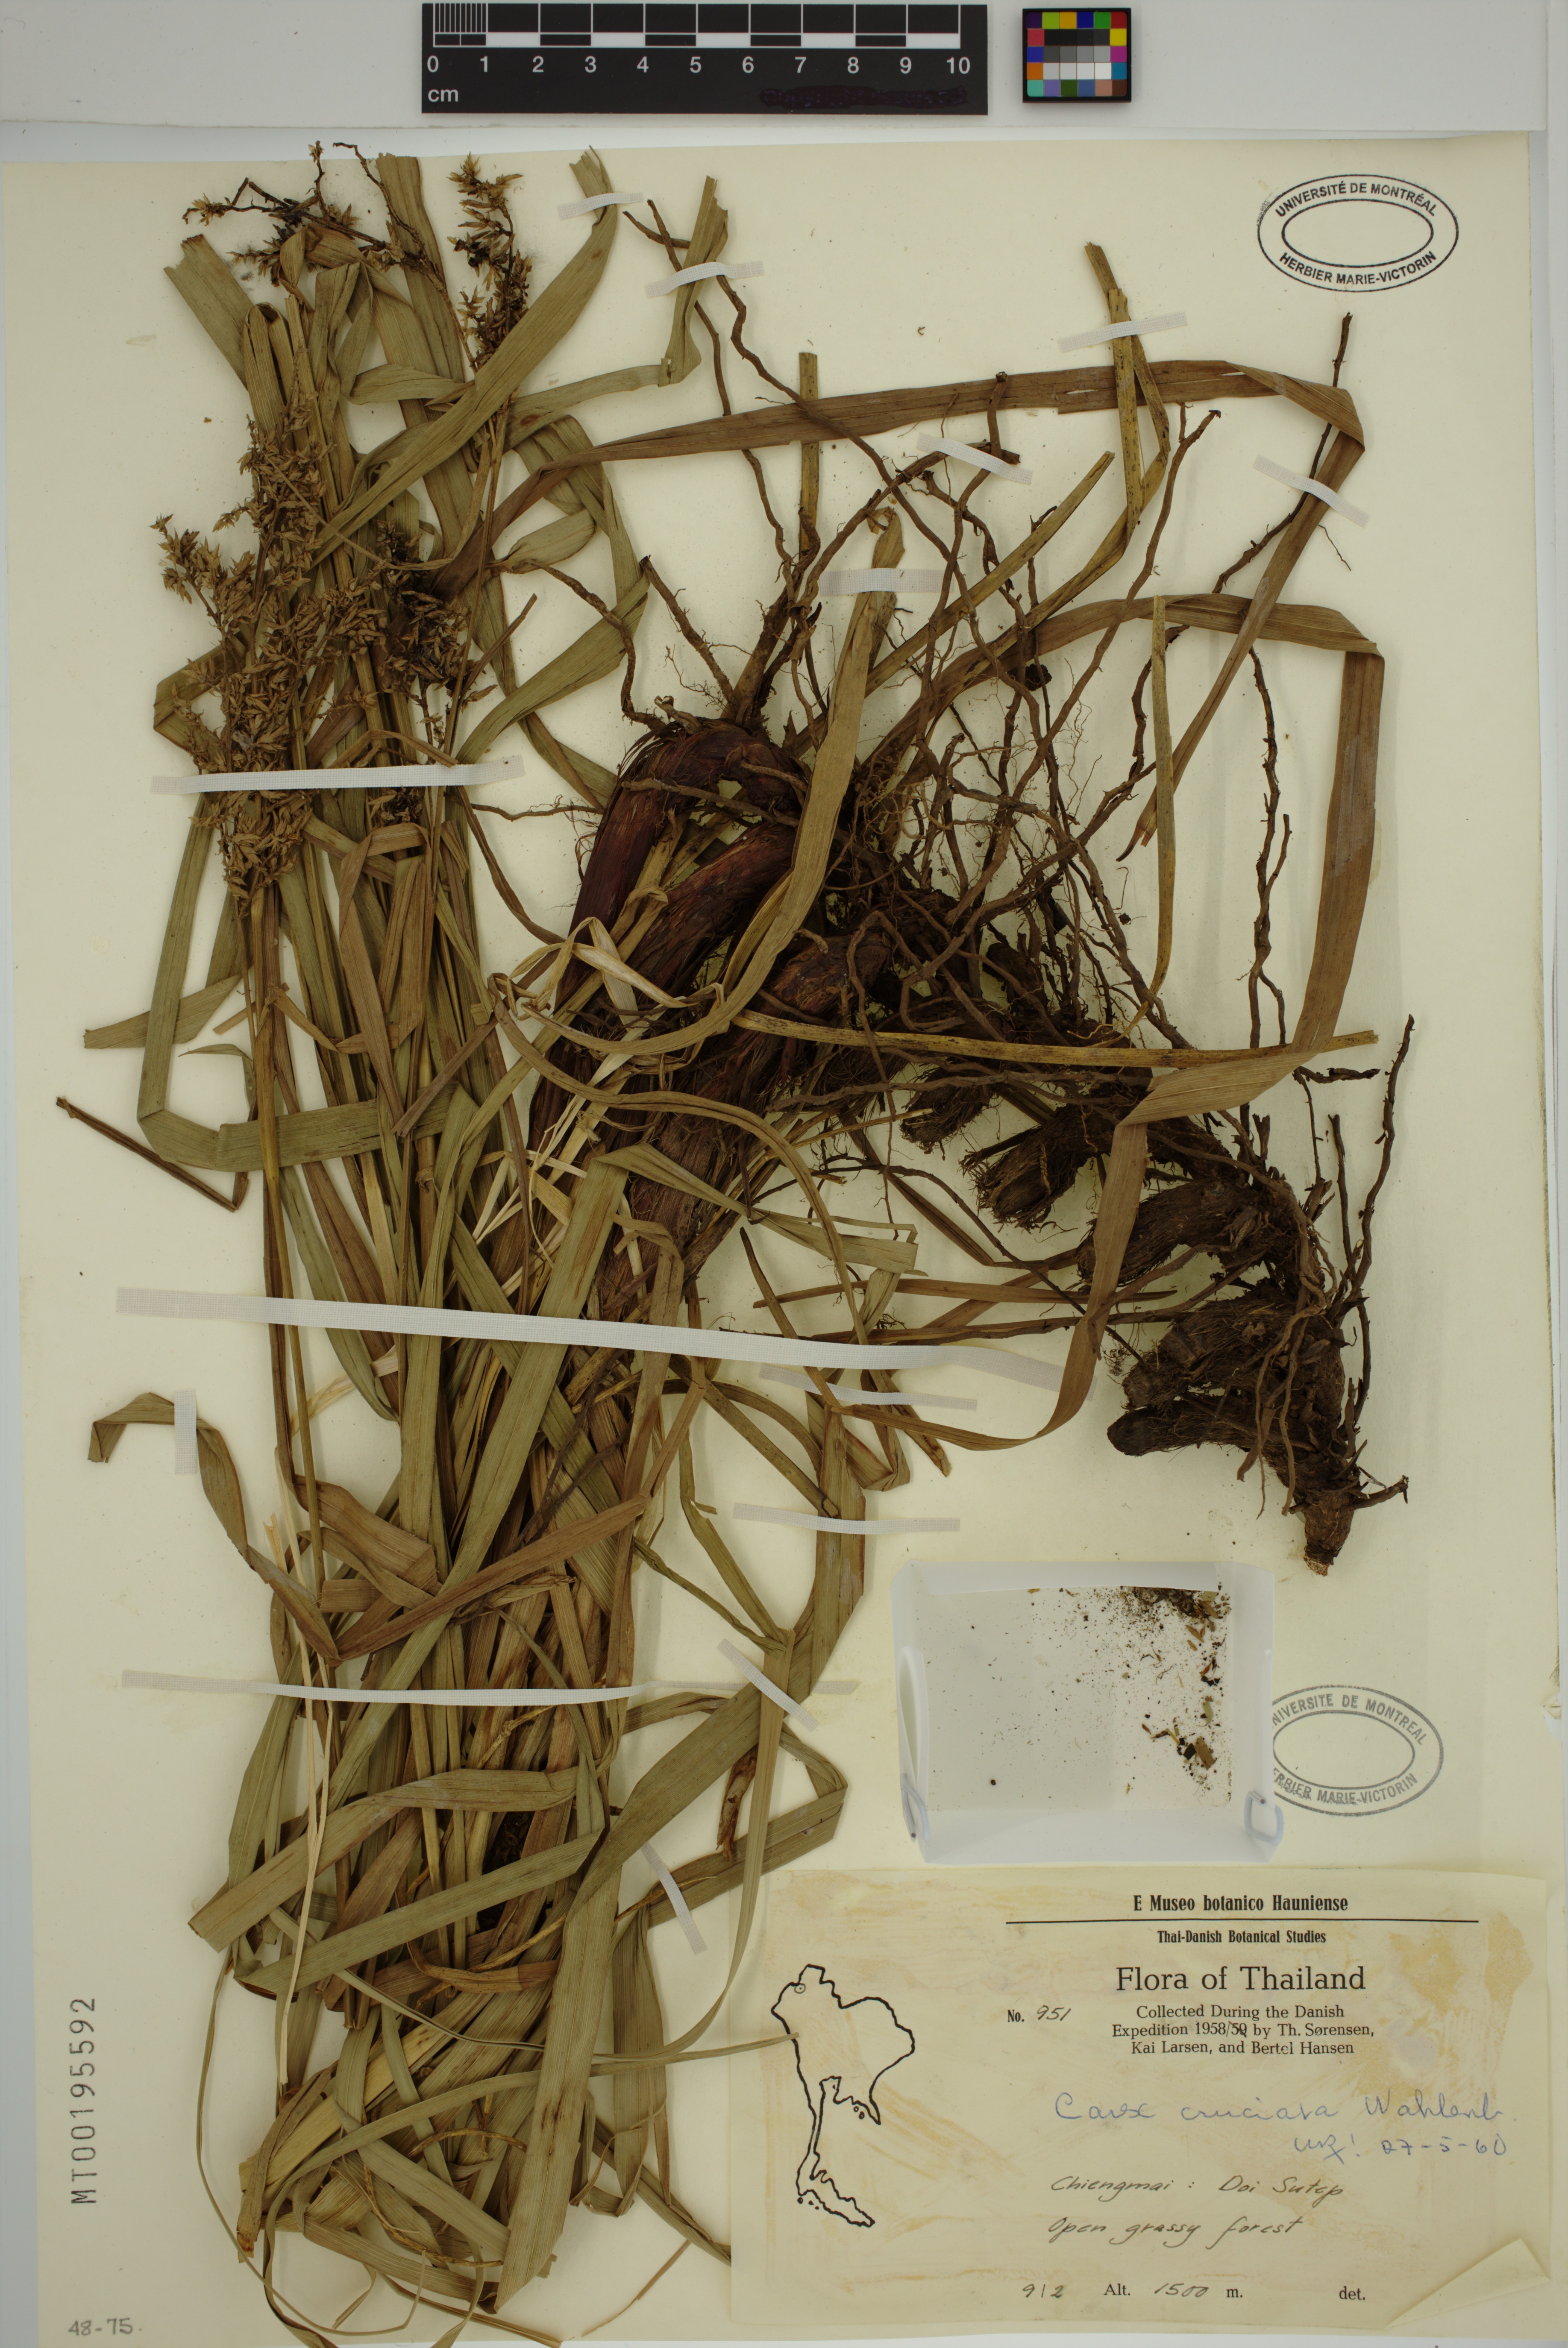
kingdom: Plantae
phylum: Tracheophyta
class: Liliopsida
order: Poales
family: Cyperaceae
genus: Carex
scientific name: Carex cruciata
